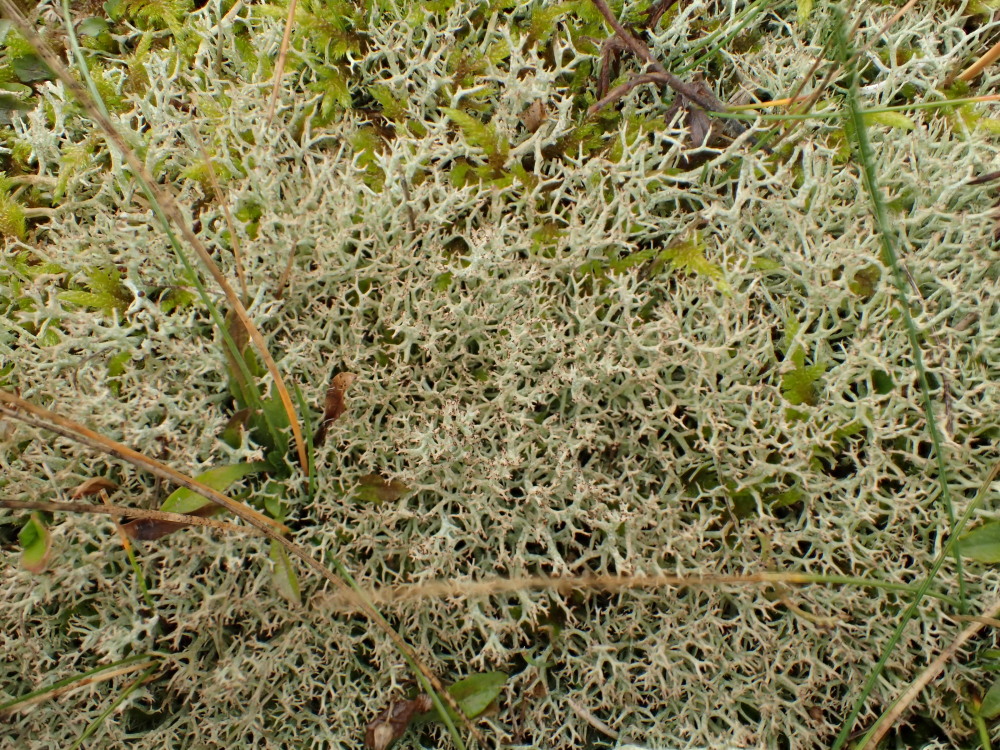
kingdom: Fungi
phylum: Ascomycota
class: Lecanoromycetes
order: Lecanorales
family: Cladoniaceae
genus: Cladonia
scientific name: Cladonia rangiformis
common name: spættet bægerlav
